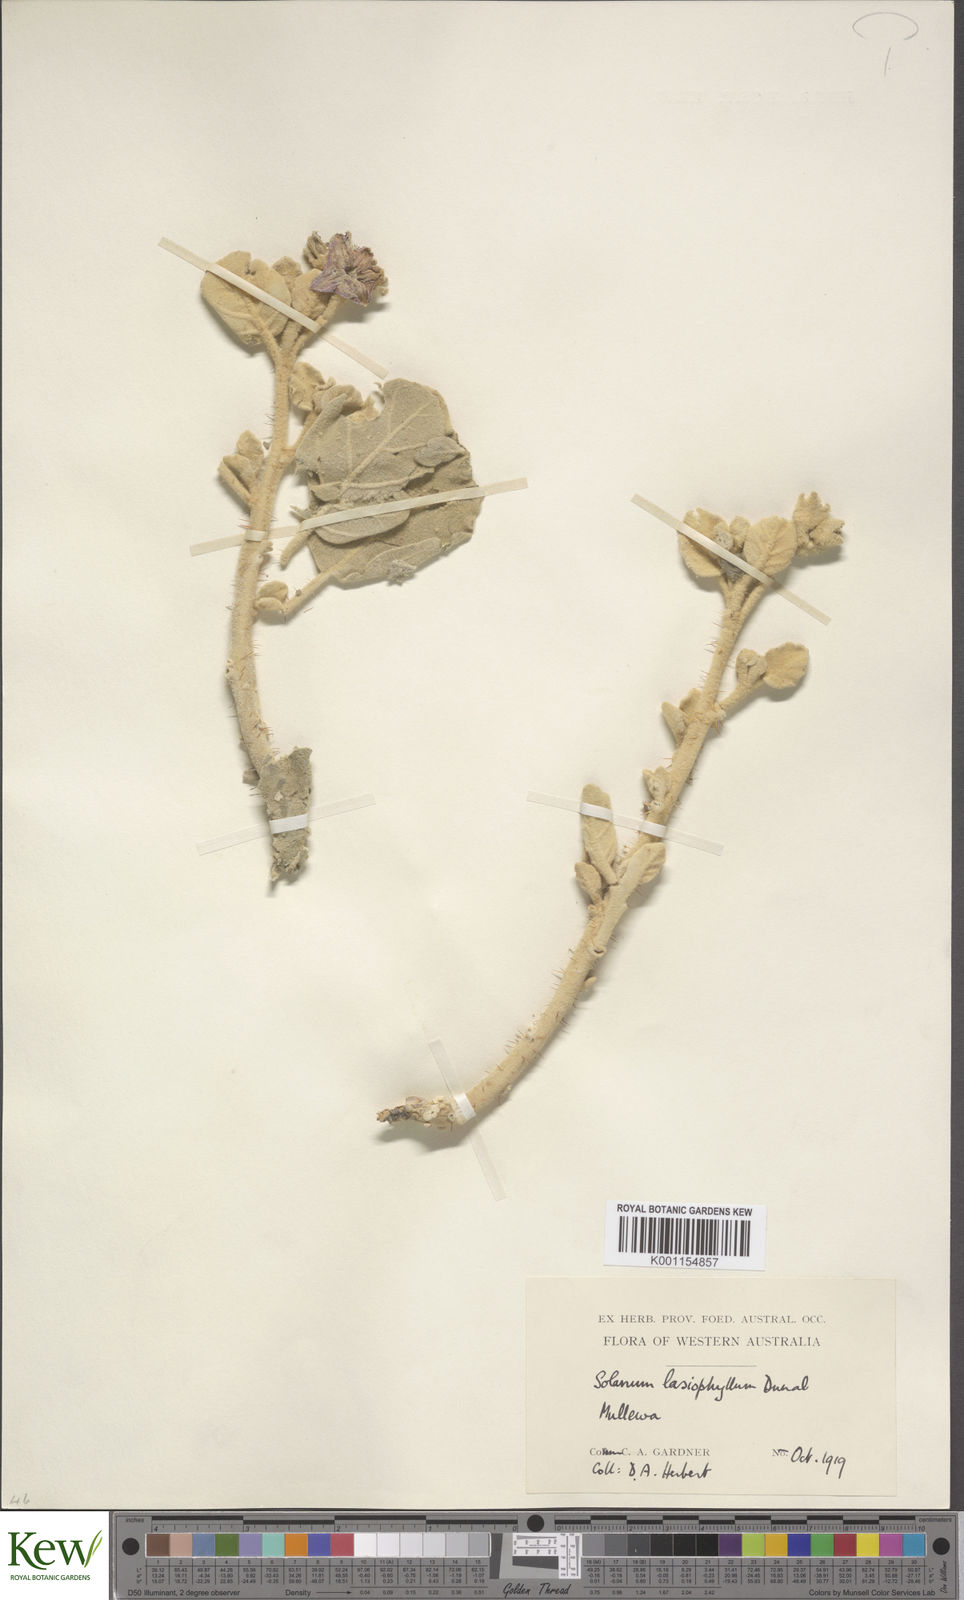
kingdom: Plantae
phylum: Tracheophyta
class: Magnoliopsida
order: Solanales
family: Solanaceae
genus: Solanum
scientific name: Solanum lasiophyllum
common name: Flannelbush
